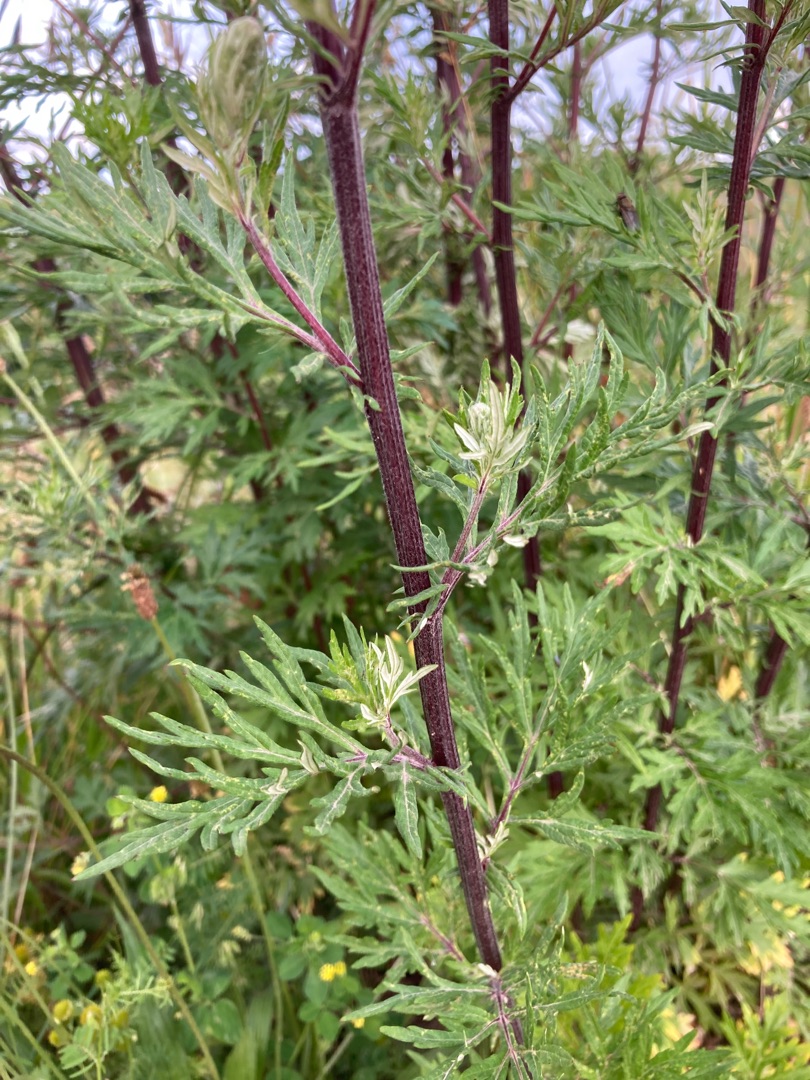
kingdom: Plantae
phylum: Tracheophyta
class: Magnoliopsida
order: Asterales
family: Asteraceae
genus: Artemisia
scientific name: Artemisia vulgaris
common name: Grå-bynke
